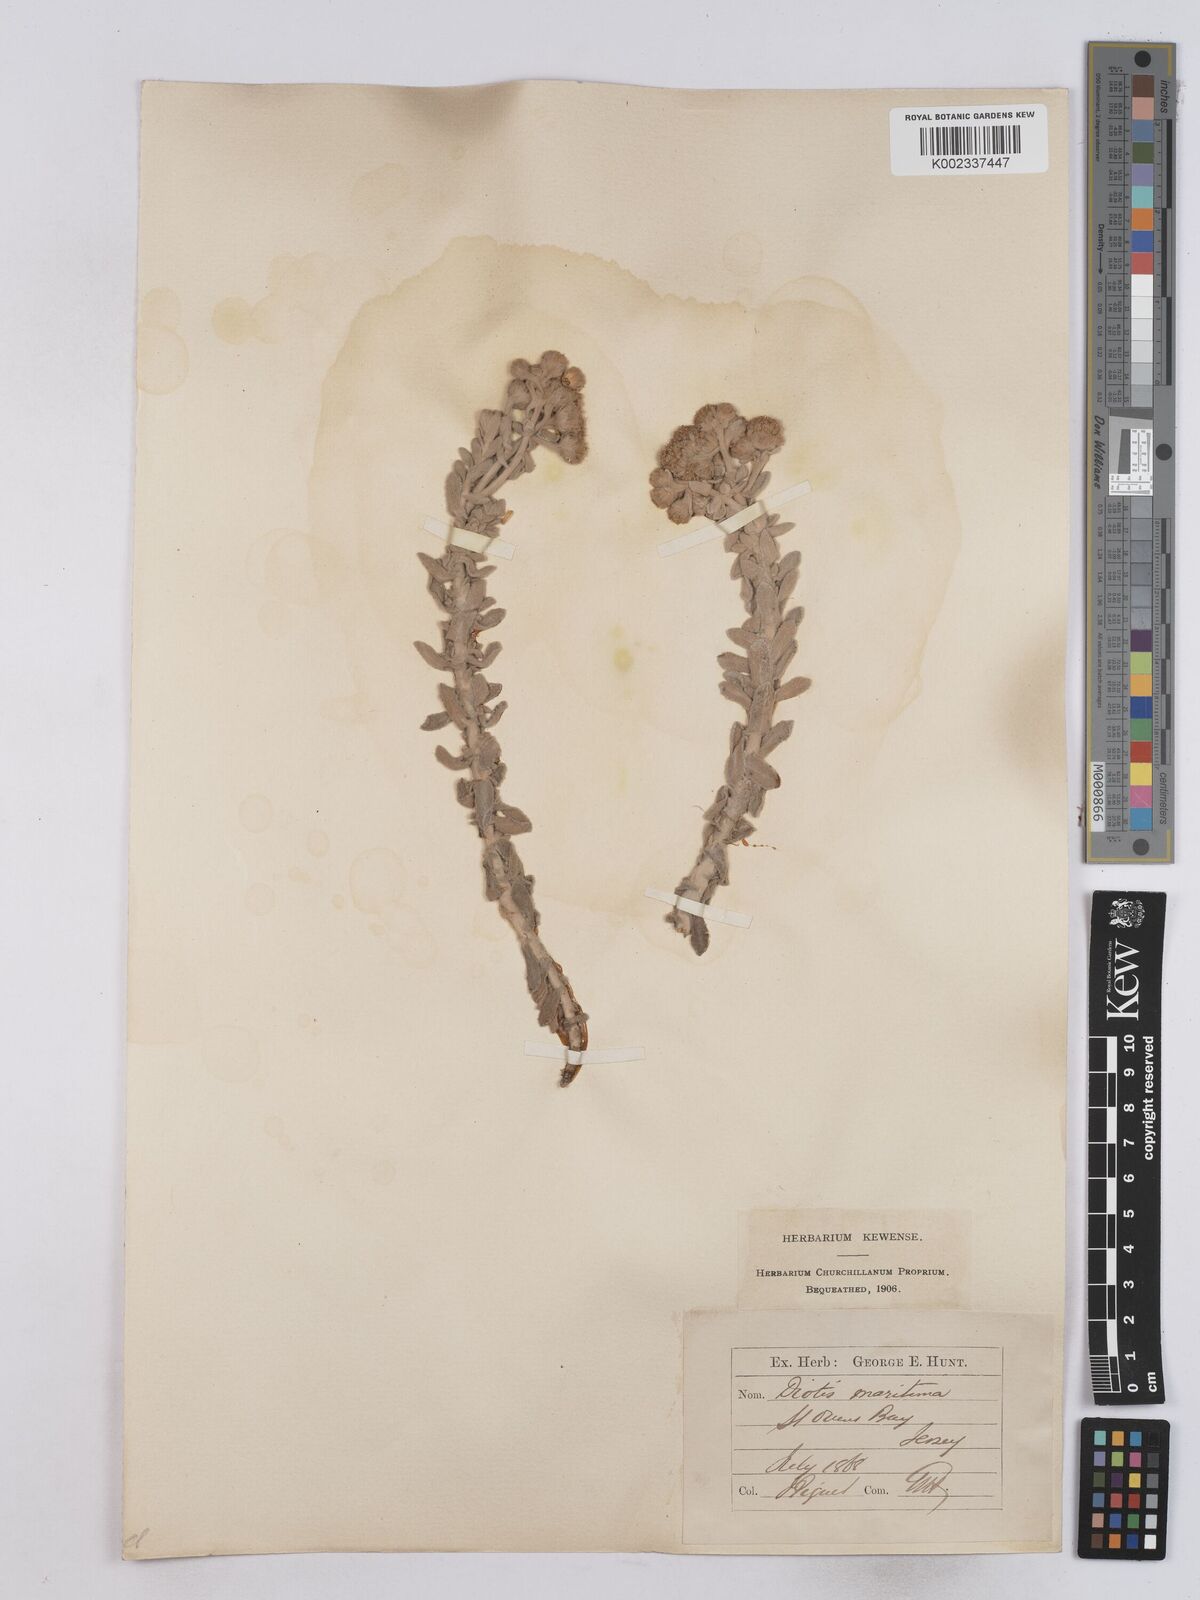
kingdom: Plantae
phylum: Tracheophyta
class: Magnoliopsida
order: Asterales
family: Asteraceae
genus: Achillea
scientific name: Achillea maritima
